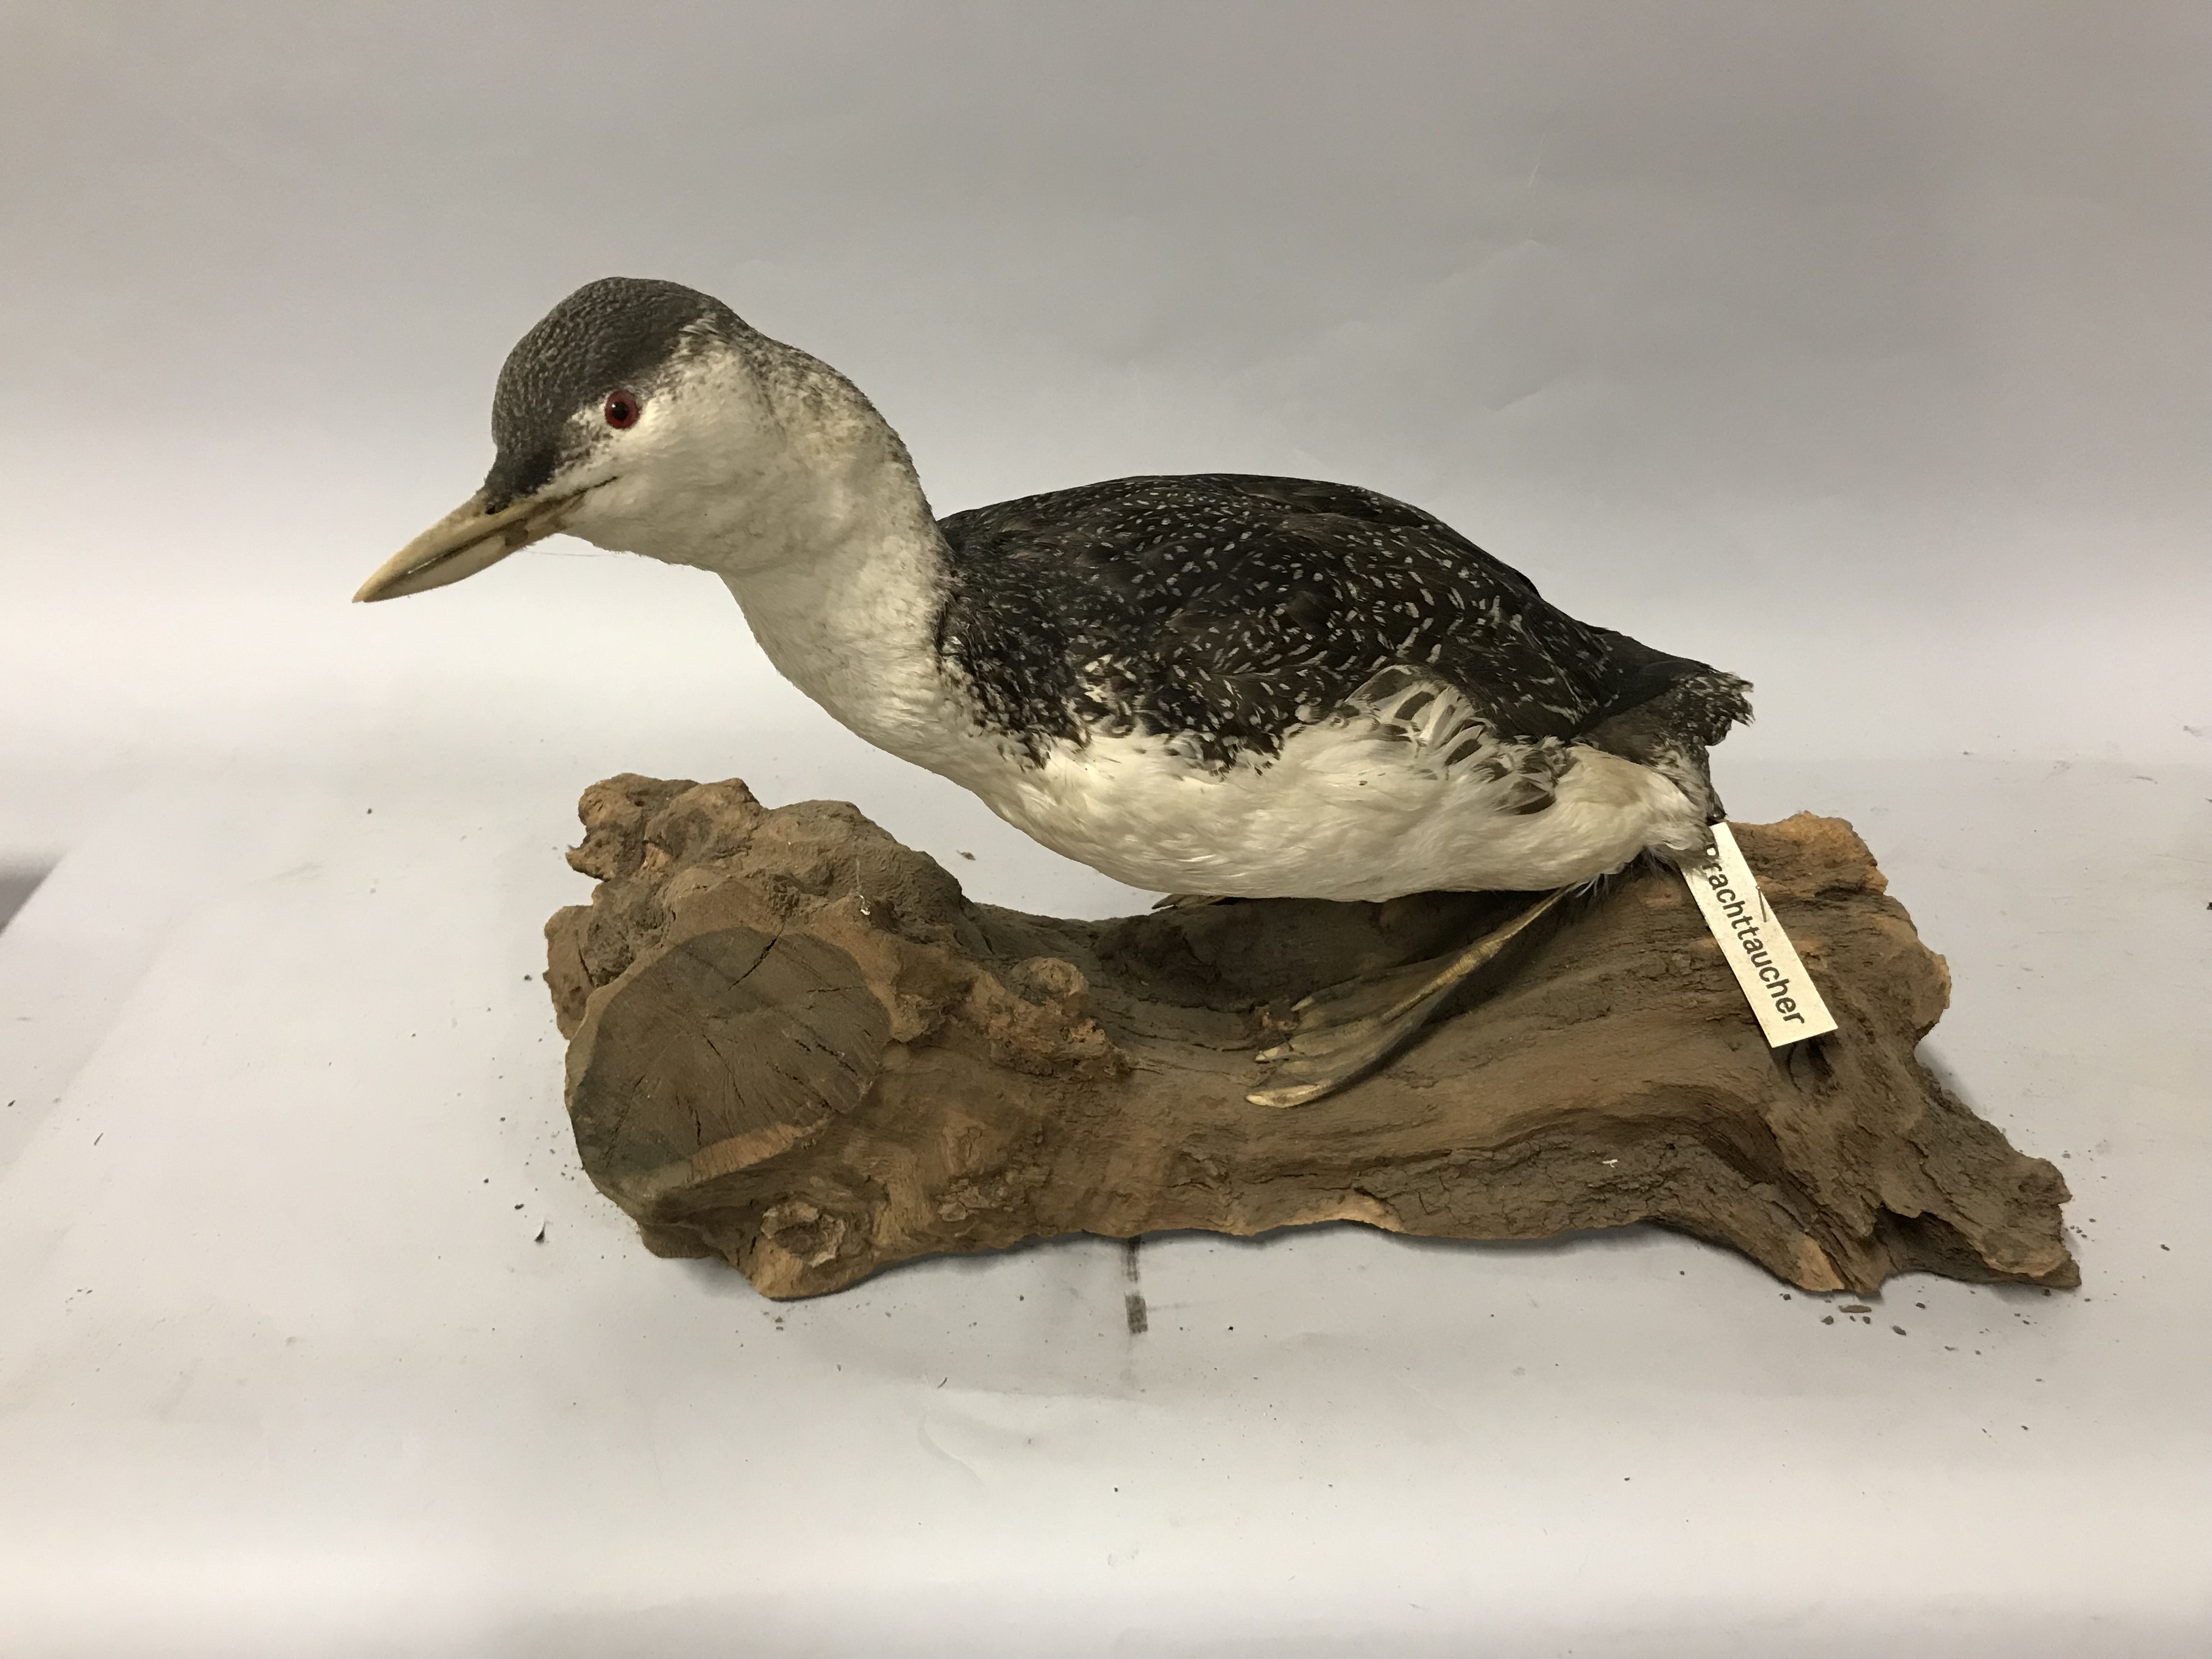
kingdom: Animalia
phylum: Chordata
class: Aves
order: Gaviiformes
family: Gaviidae
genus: Gavia
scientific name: Gavia arctica
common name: Black-throated loon
